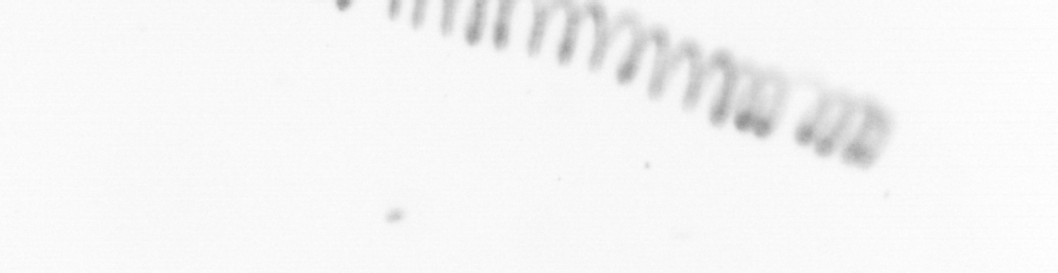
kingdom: Chromista
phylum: Ochrophyta
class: Bacillariophyceae
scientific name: Bacillariophyceae
